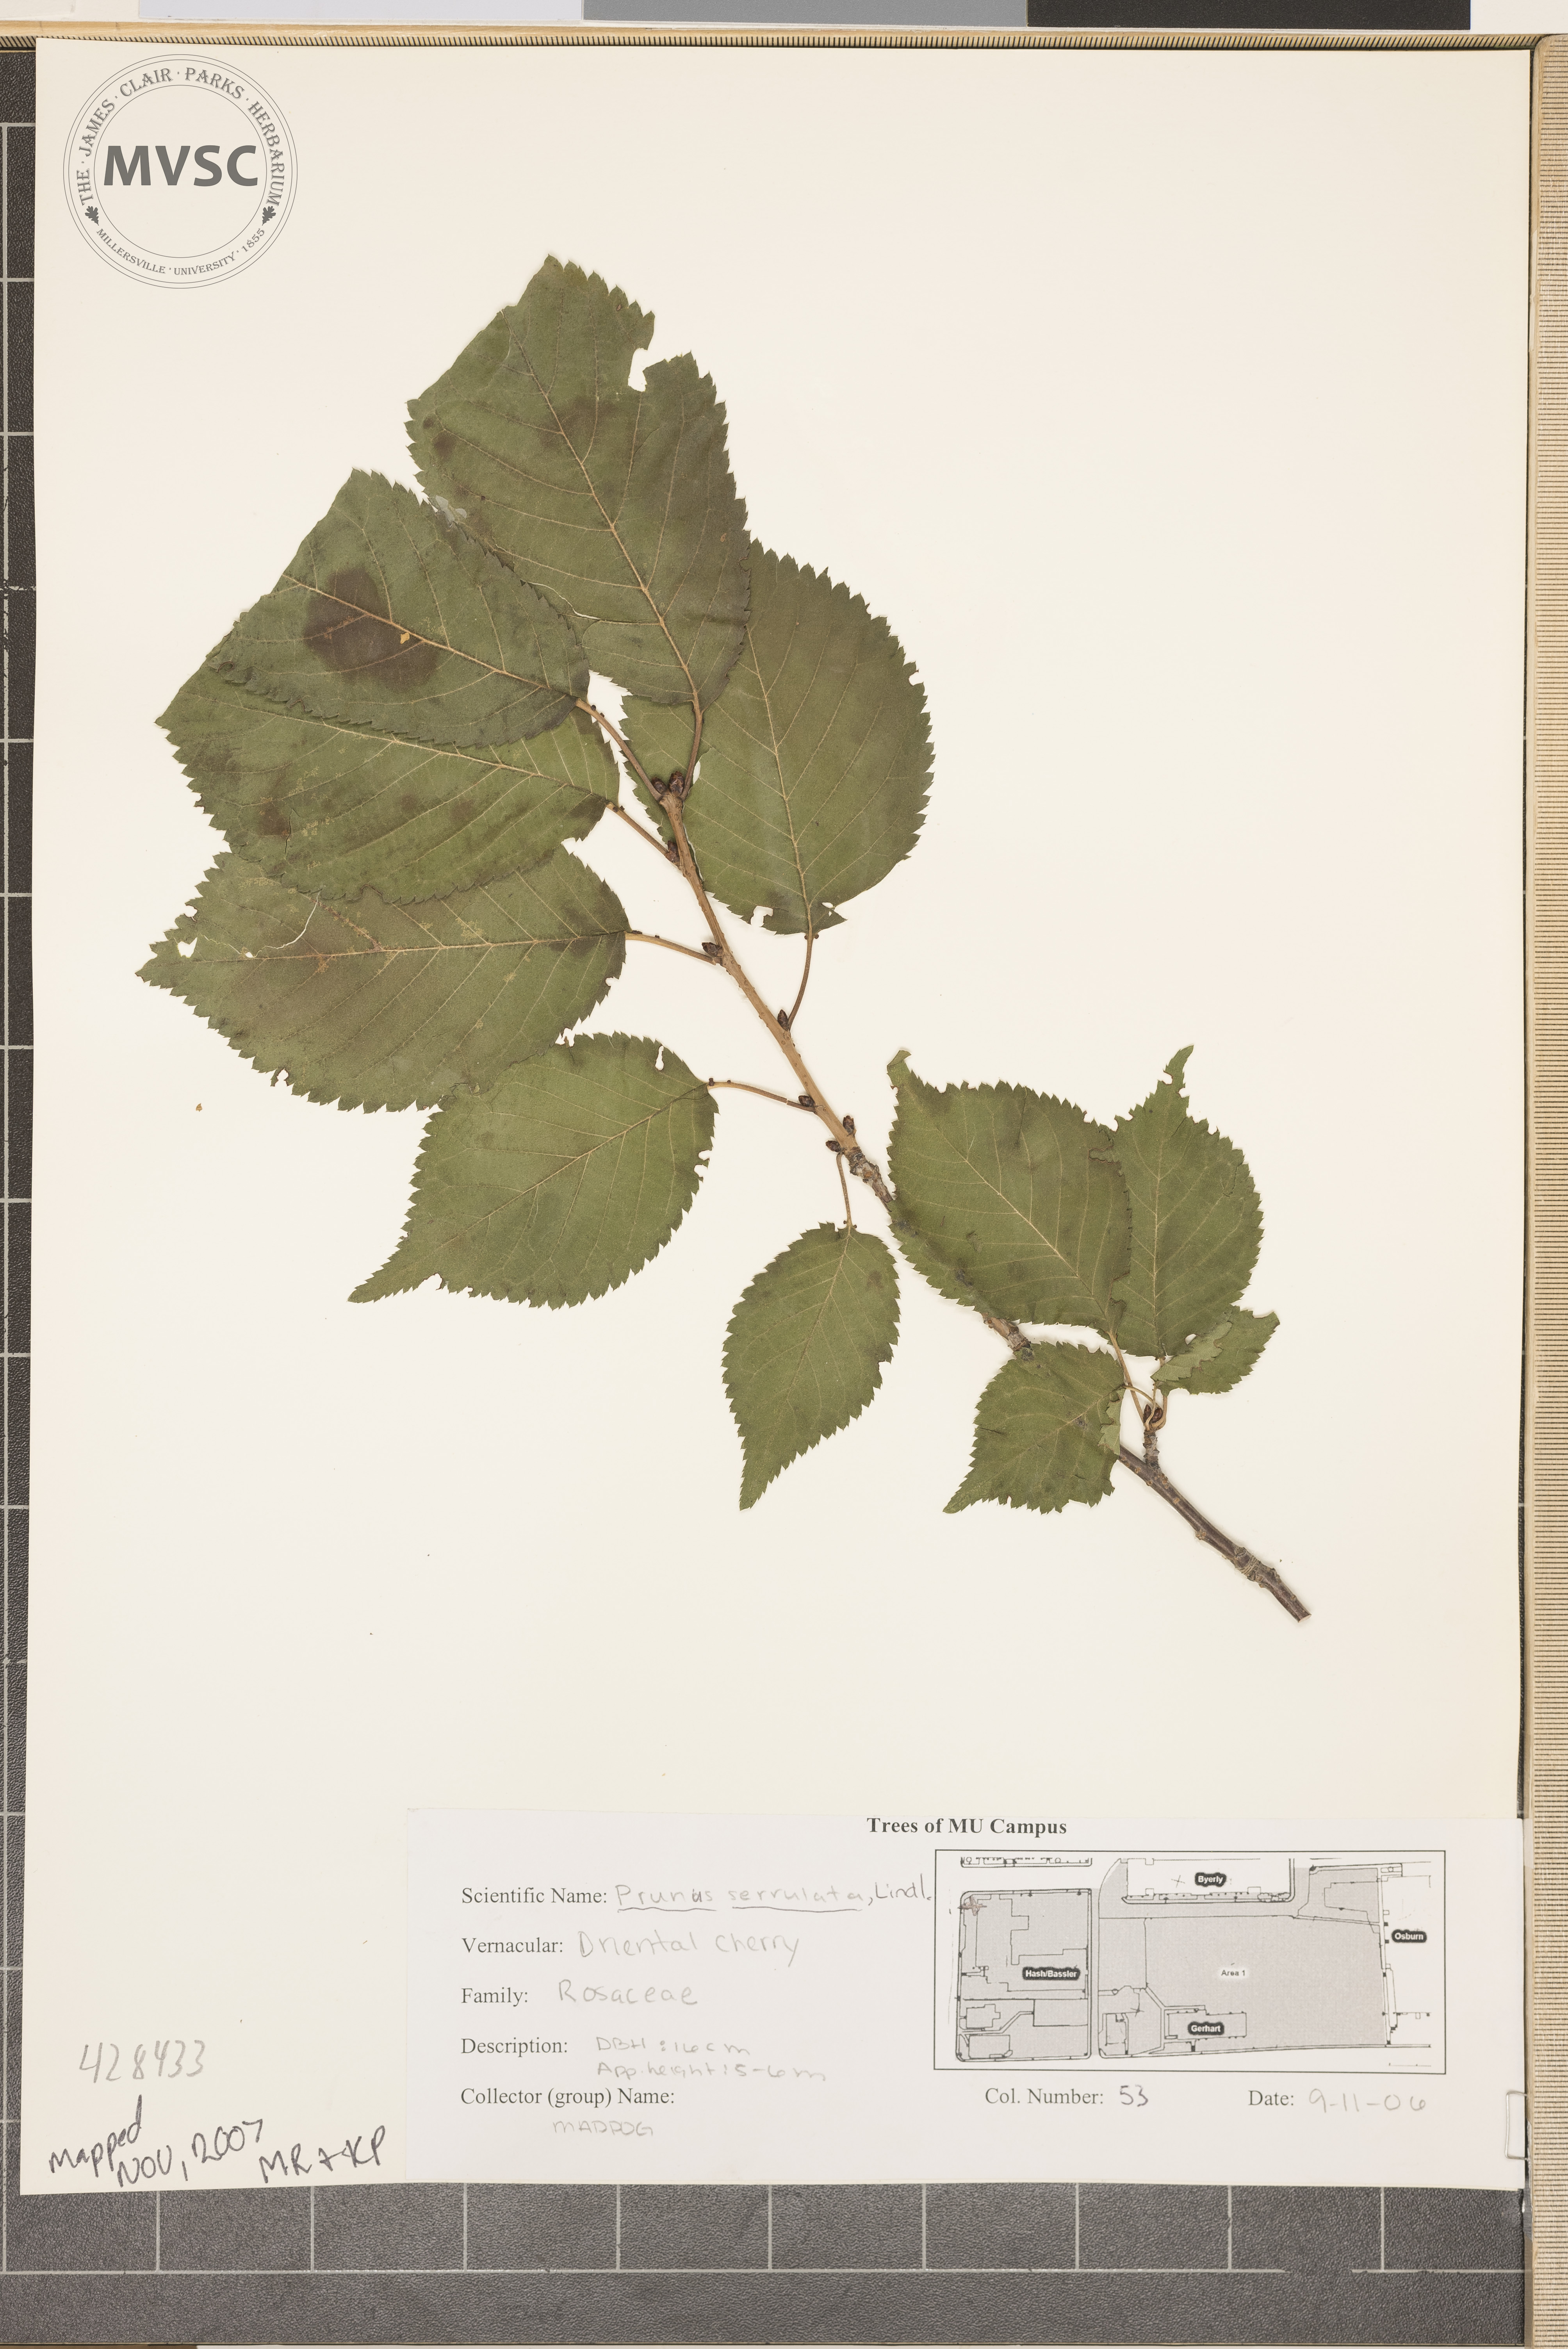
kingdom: Plantae
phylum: Tracheophyta
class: Magnoliopsida
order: Rosales
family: Rosaceae
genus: Prunus
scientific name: Prunus serrulata
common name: Oriental cherry
